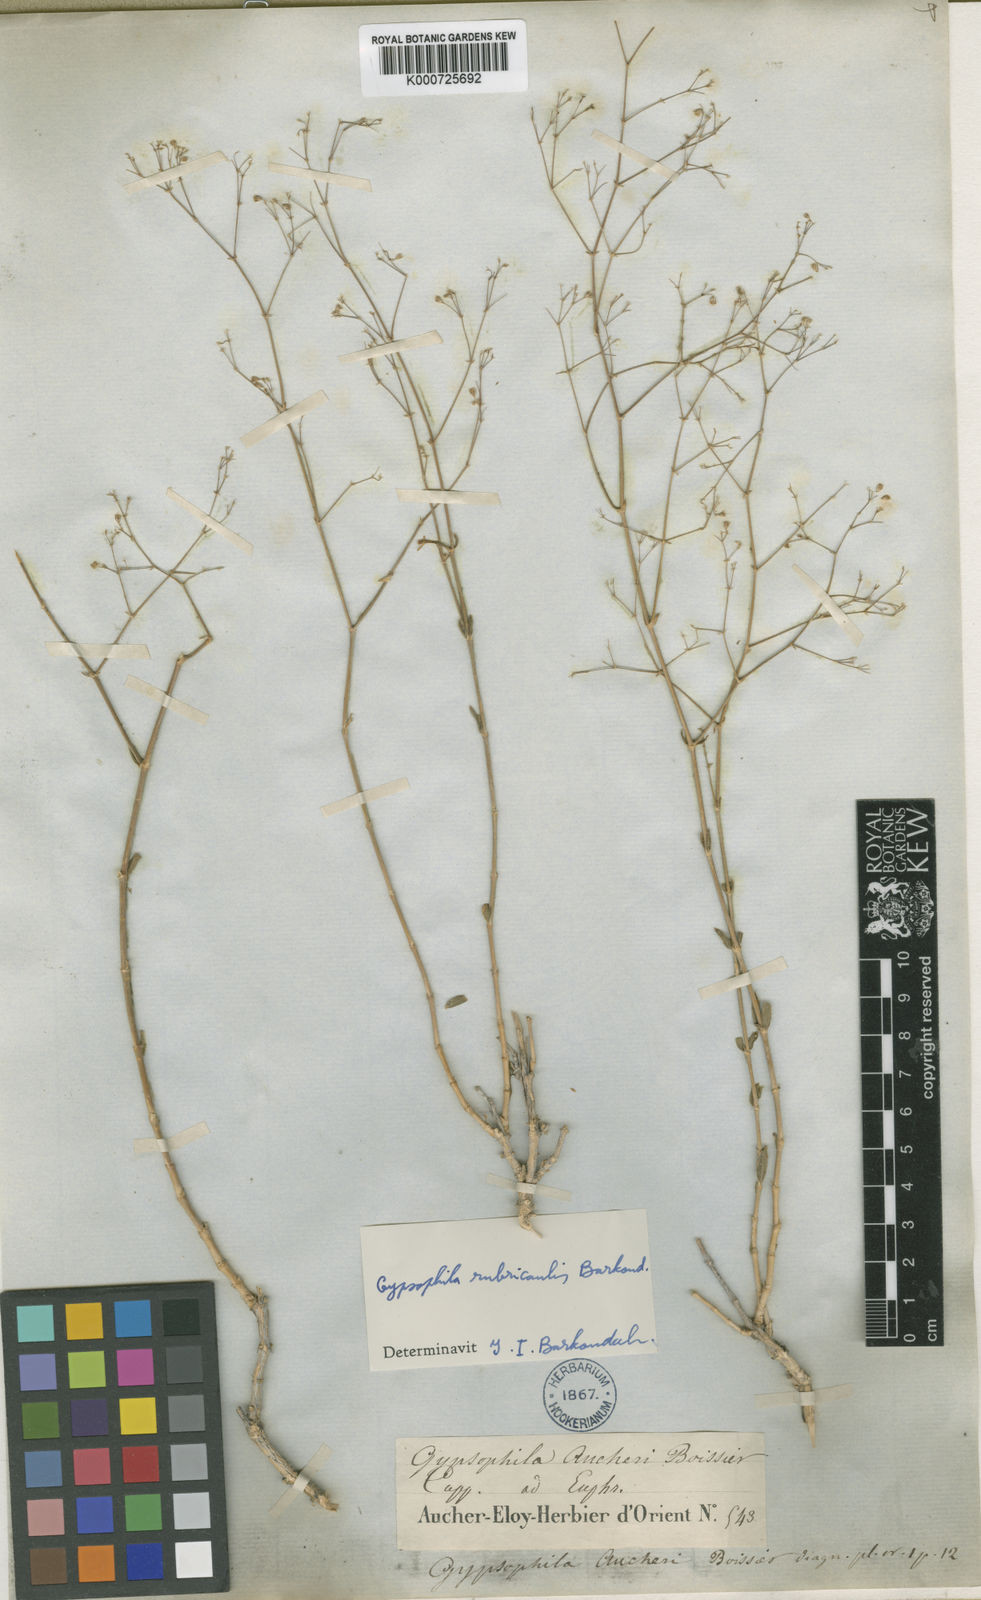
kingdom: Plantae
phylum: Tracheophyta
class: Magnoliopsida
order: Caryophyllales
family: Caryophyllaceae
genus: Gypsophila
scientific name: Gypsophila virgata
